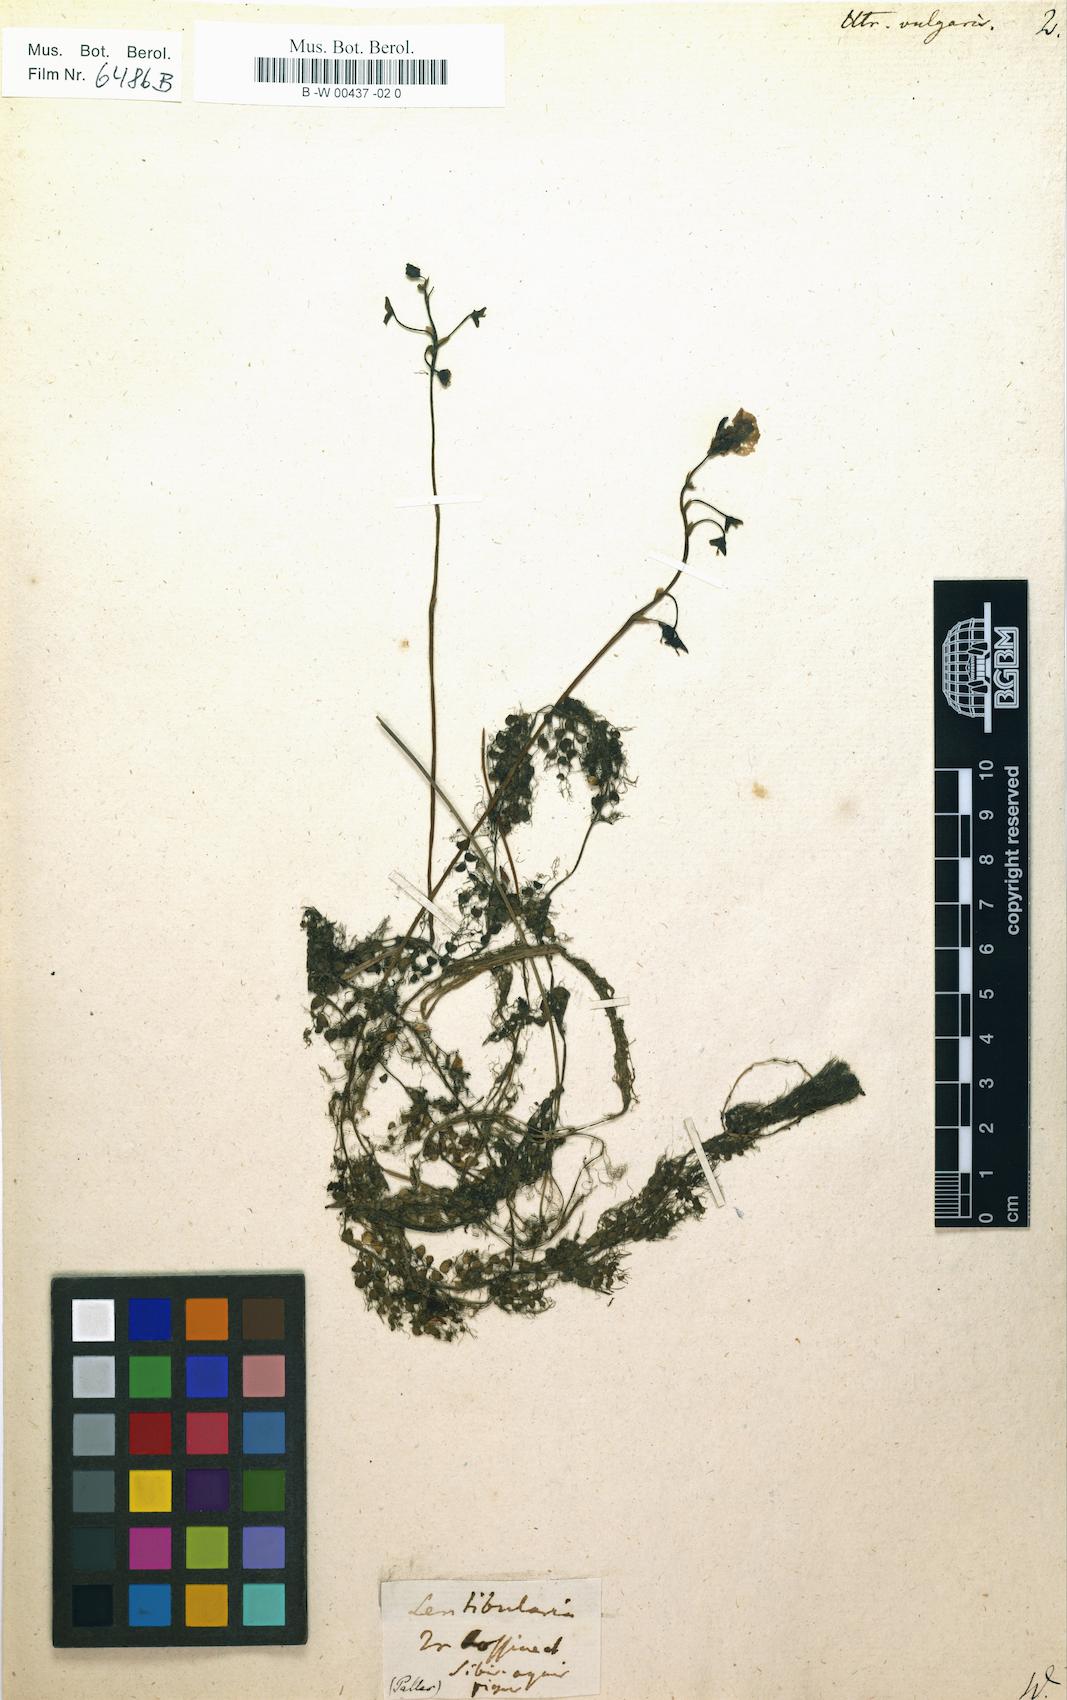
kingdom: Plantae
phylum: Tracheophyta
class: Magnoliopsida
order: Lamiales
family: Lentibulariaceae
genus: Utricularia
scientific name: Utricularia vulgaris
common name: Greater bladderwort
